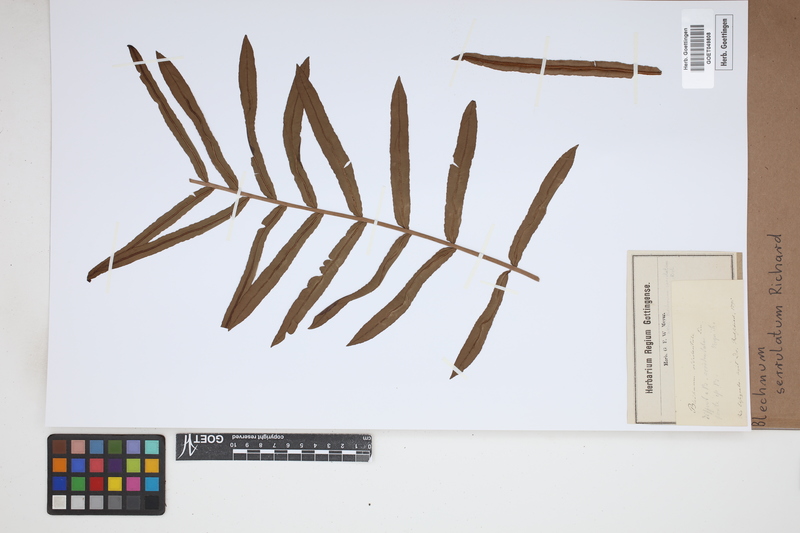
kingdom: Plantae
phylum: Tracheophyta
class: Polypodiopsida
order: Polypodiales
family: Blechnaceae
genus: Telmatoblechnum
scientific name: Telmatoblechnum serrulatum
